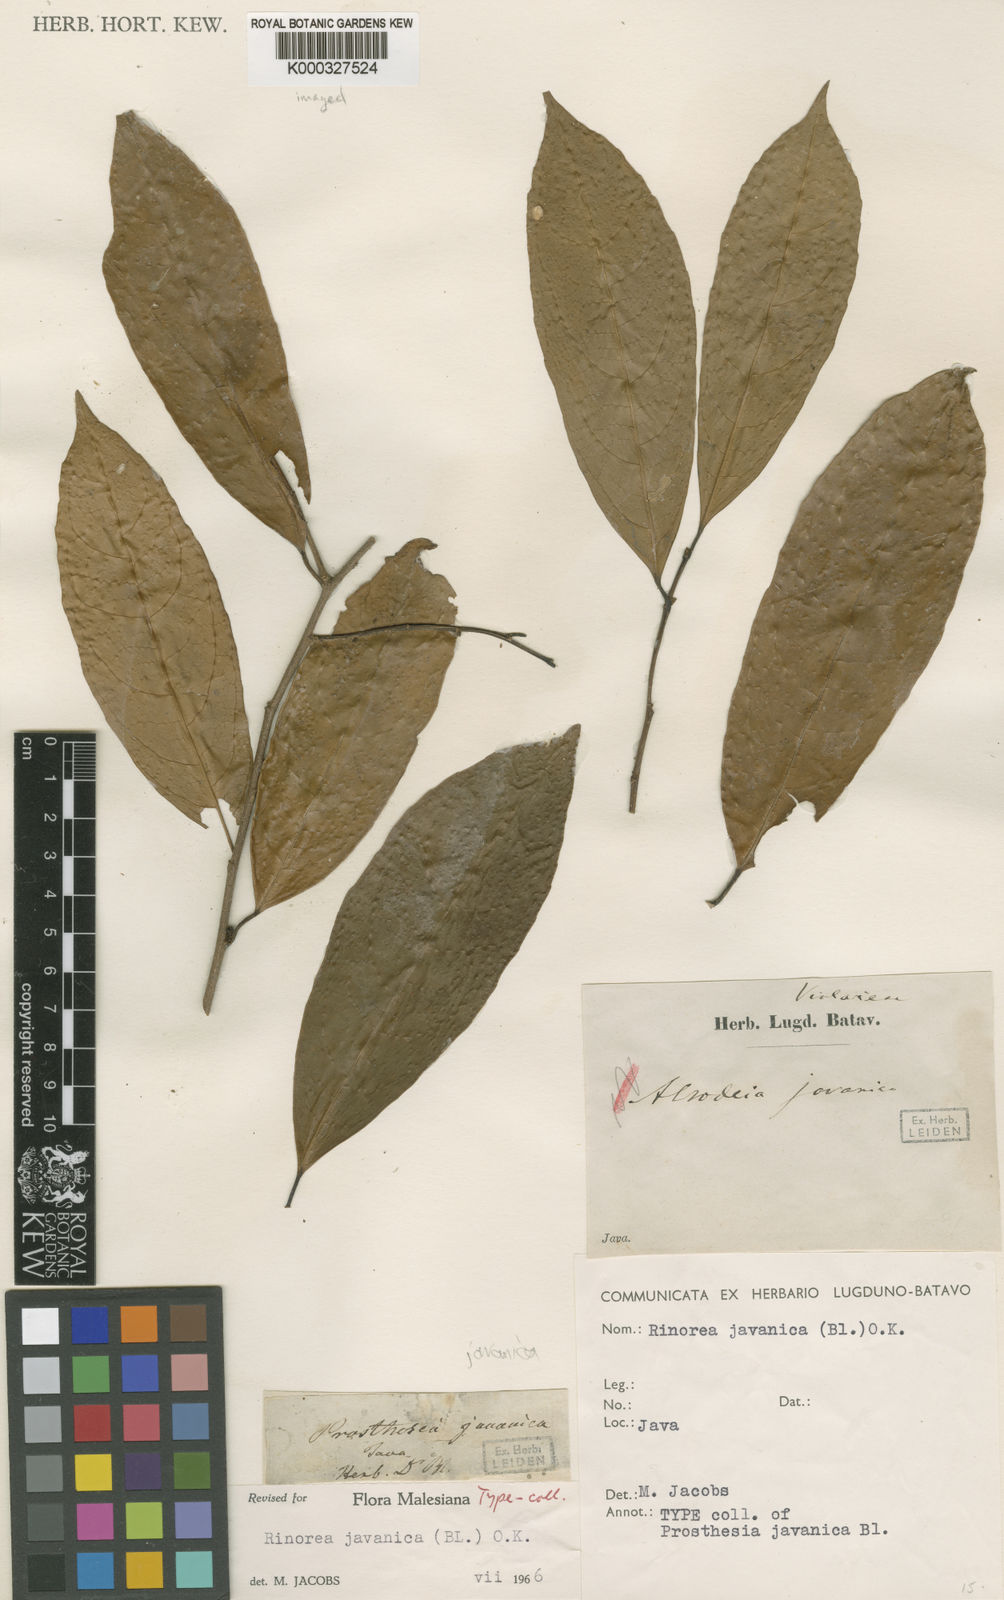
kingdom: Plantae
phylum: Tracheophyta
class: Magnoliopsida
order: Malpighiales
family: Violaceae
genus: Rinorea
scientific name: Rinorea javanica
